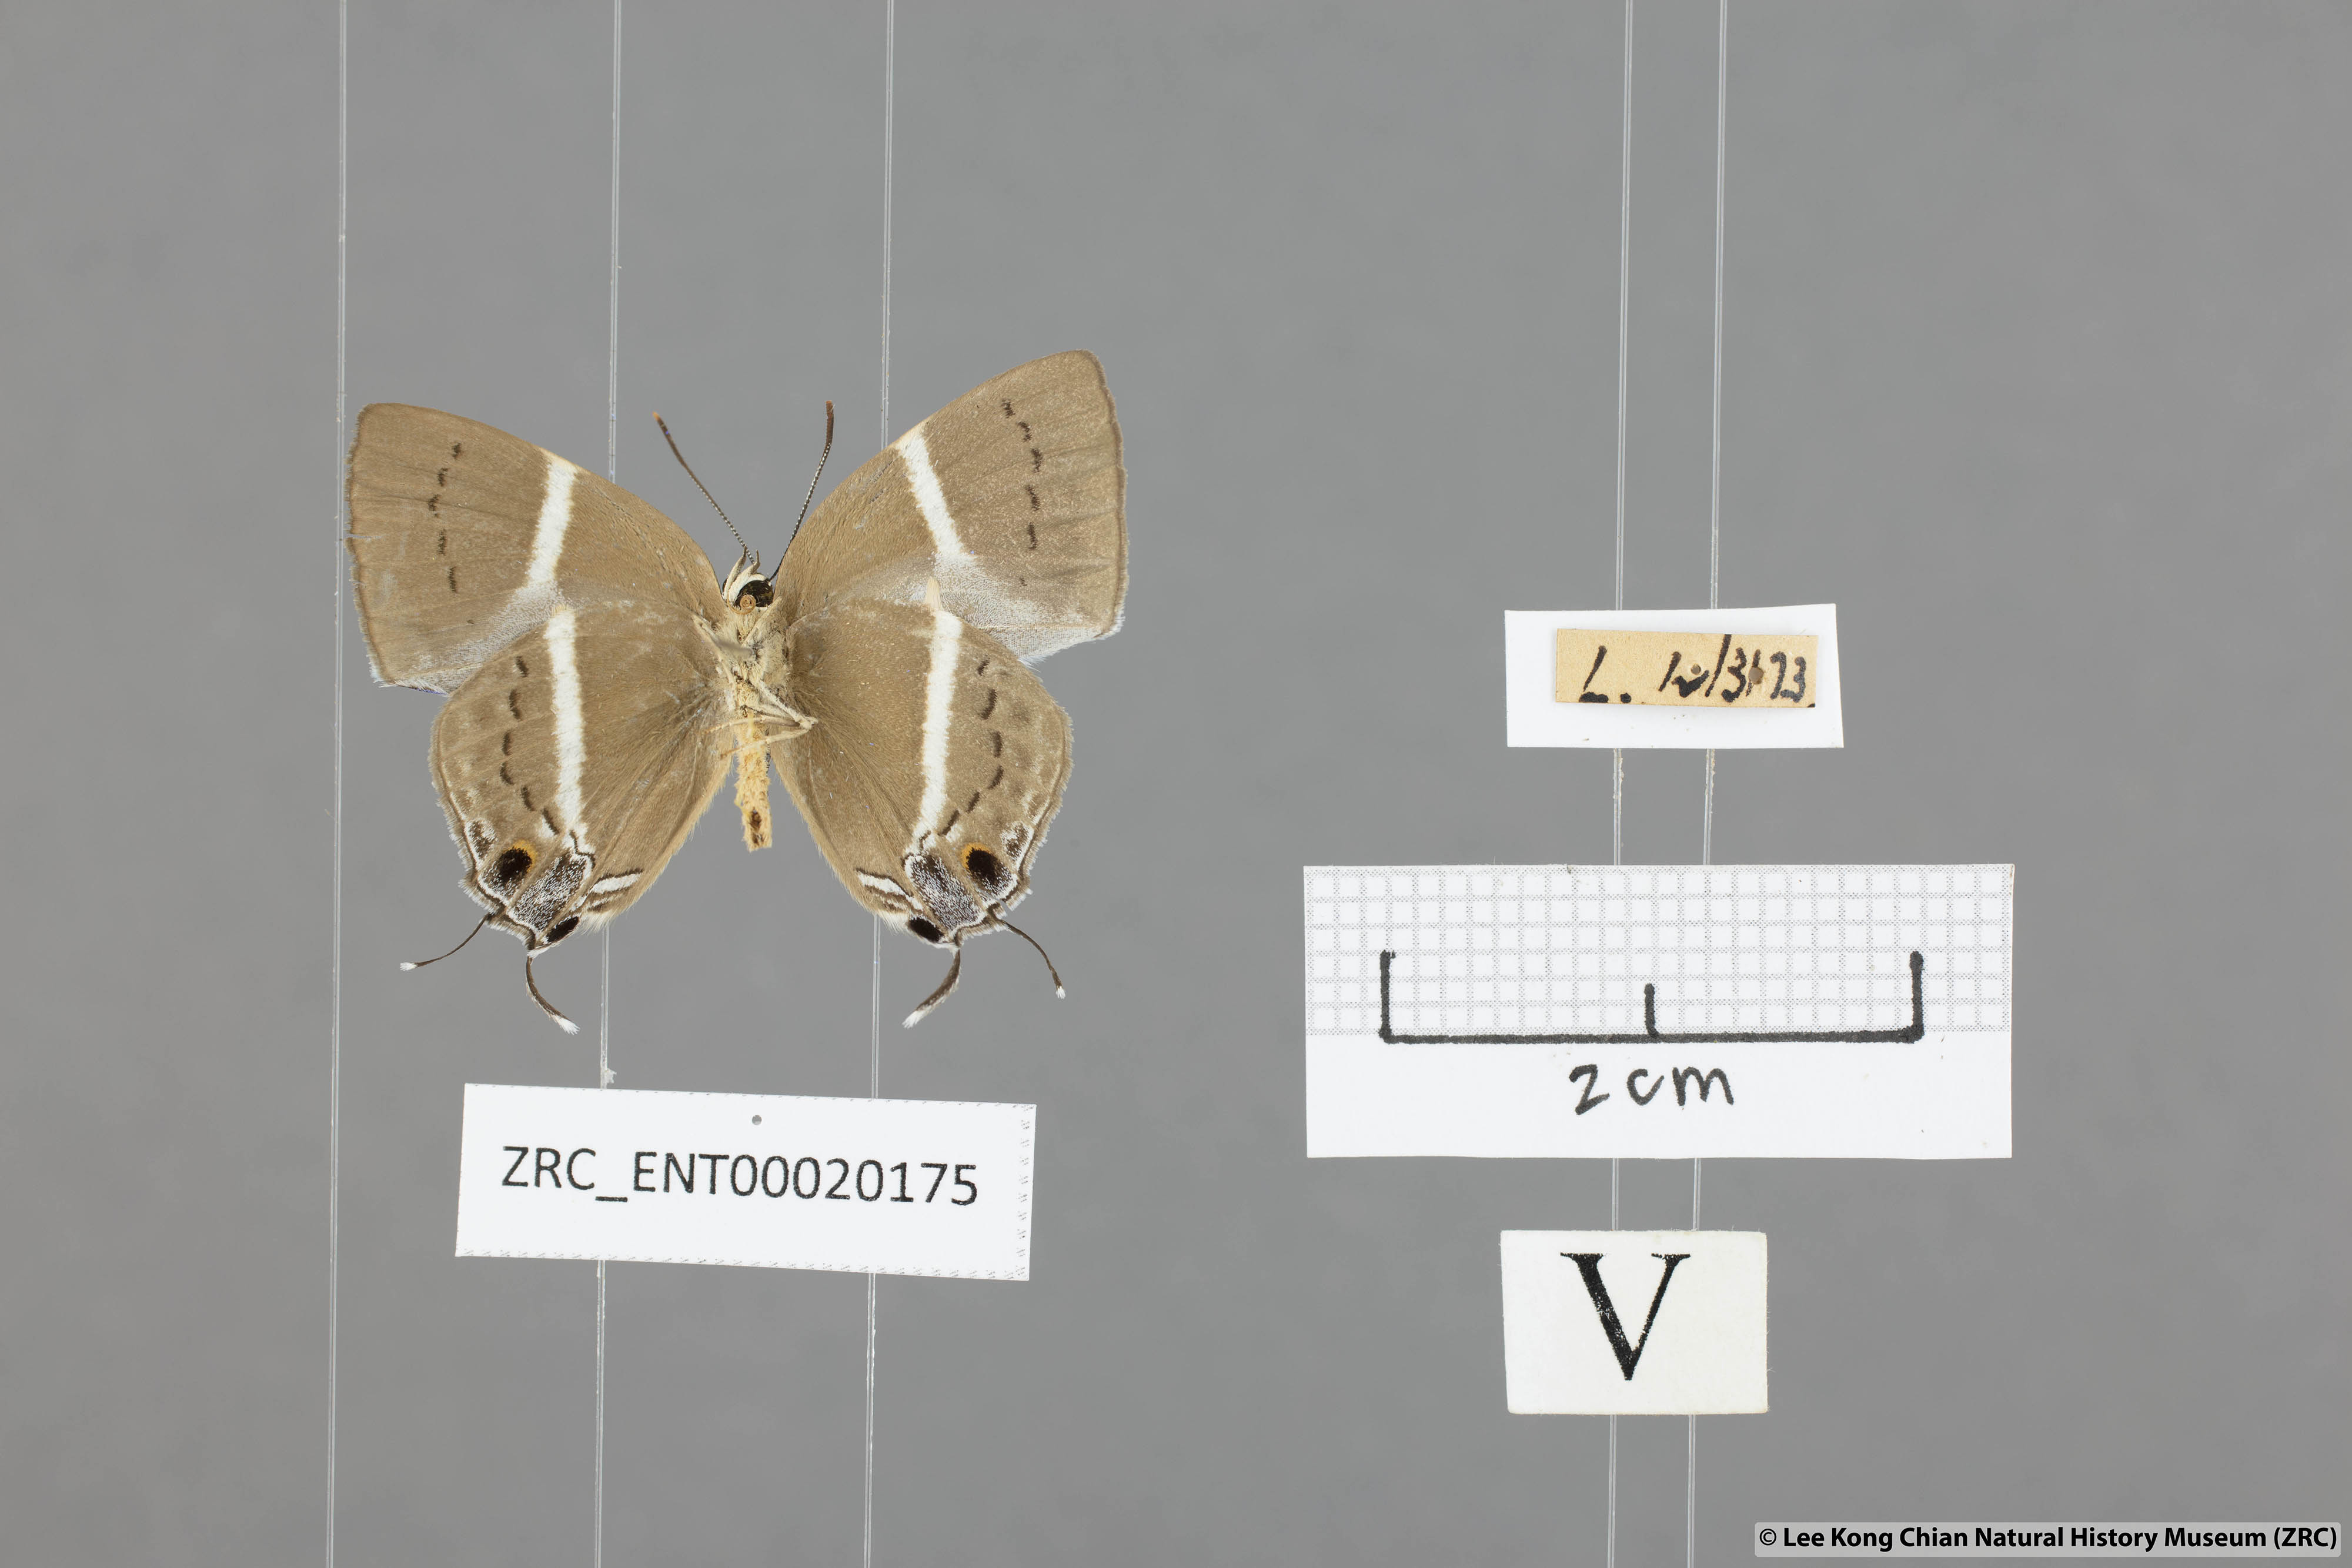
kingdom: Animalia
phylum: Arthropoda
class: Insecta
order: Lepidoptera
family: Lycaenidae
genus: Dacalana
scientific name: Dacalana vidura
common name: Medium-branded royal
